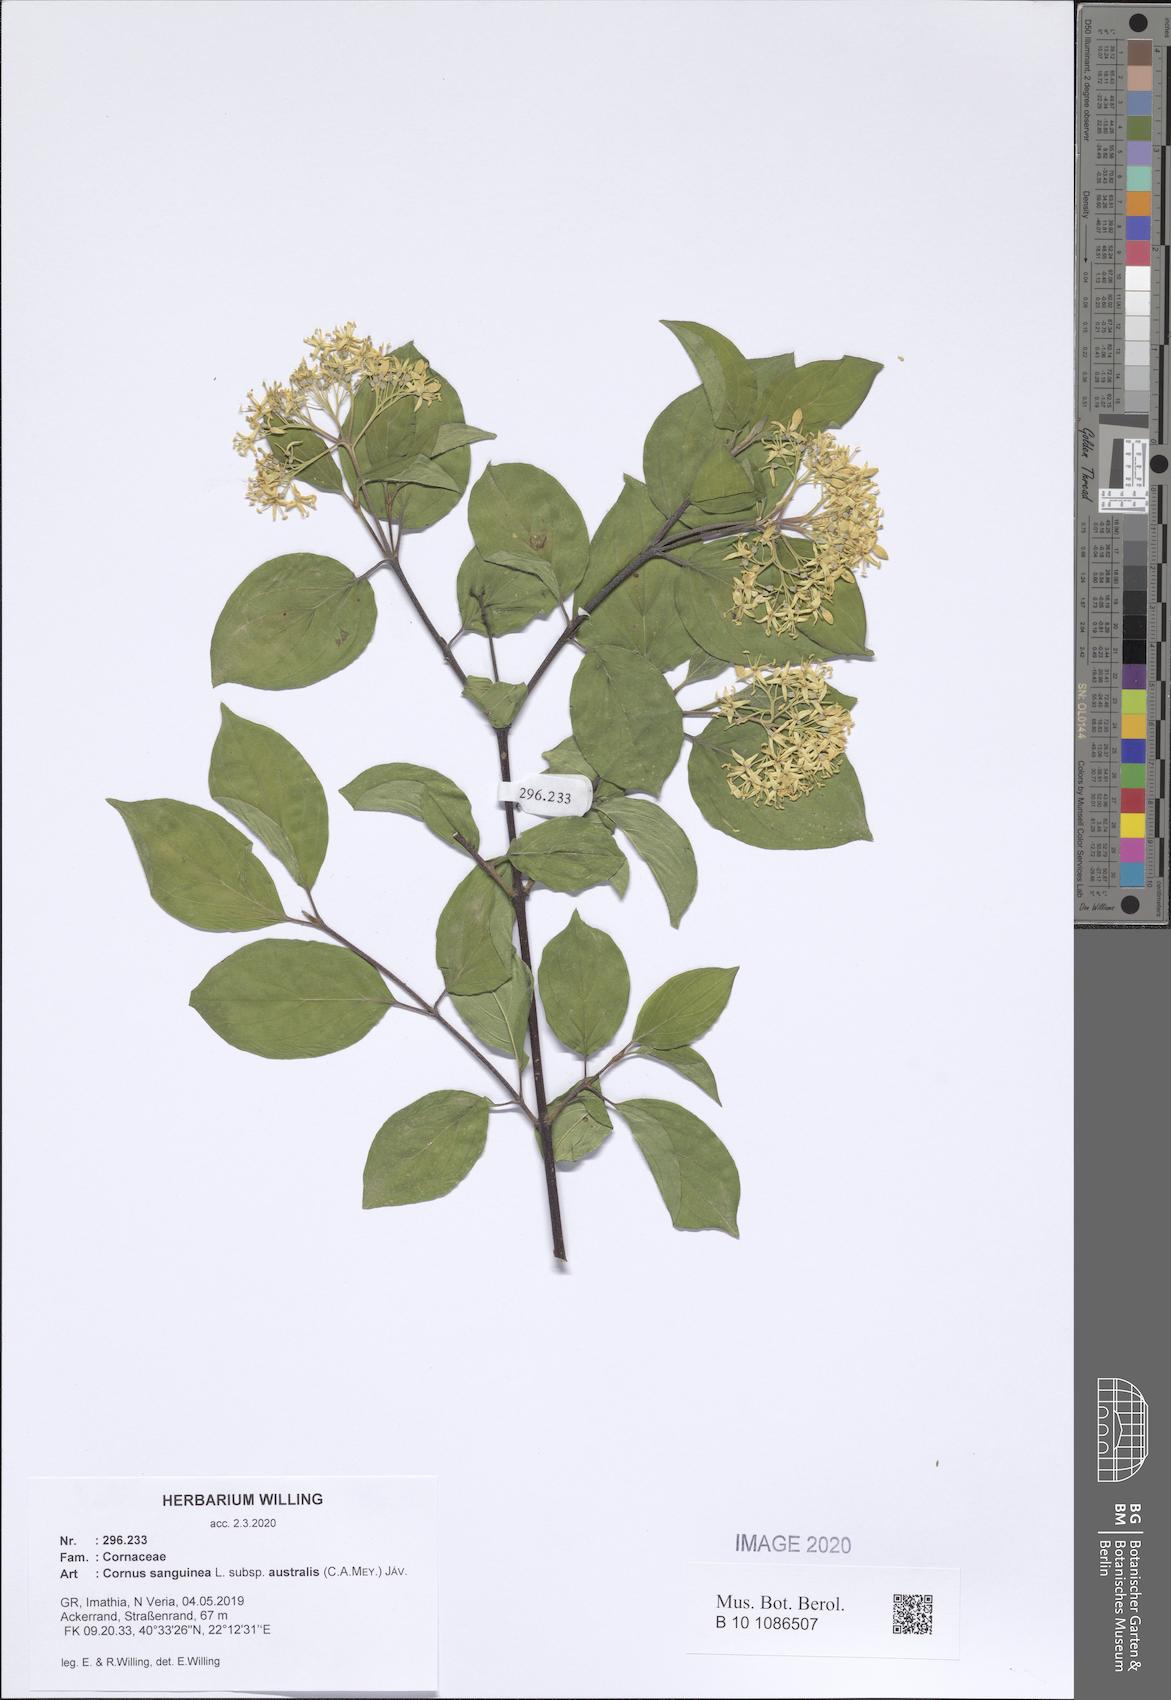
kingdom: Plantae
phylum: Tracheophyta
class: Magnoliopsida
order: Cornales
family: Cornaceae
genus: Cornus
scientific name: Cornus sanguinea
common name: Dogwood
